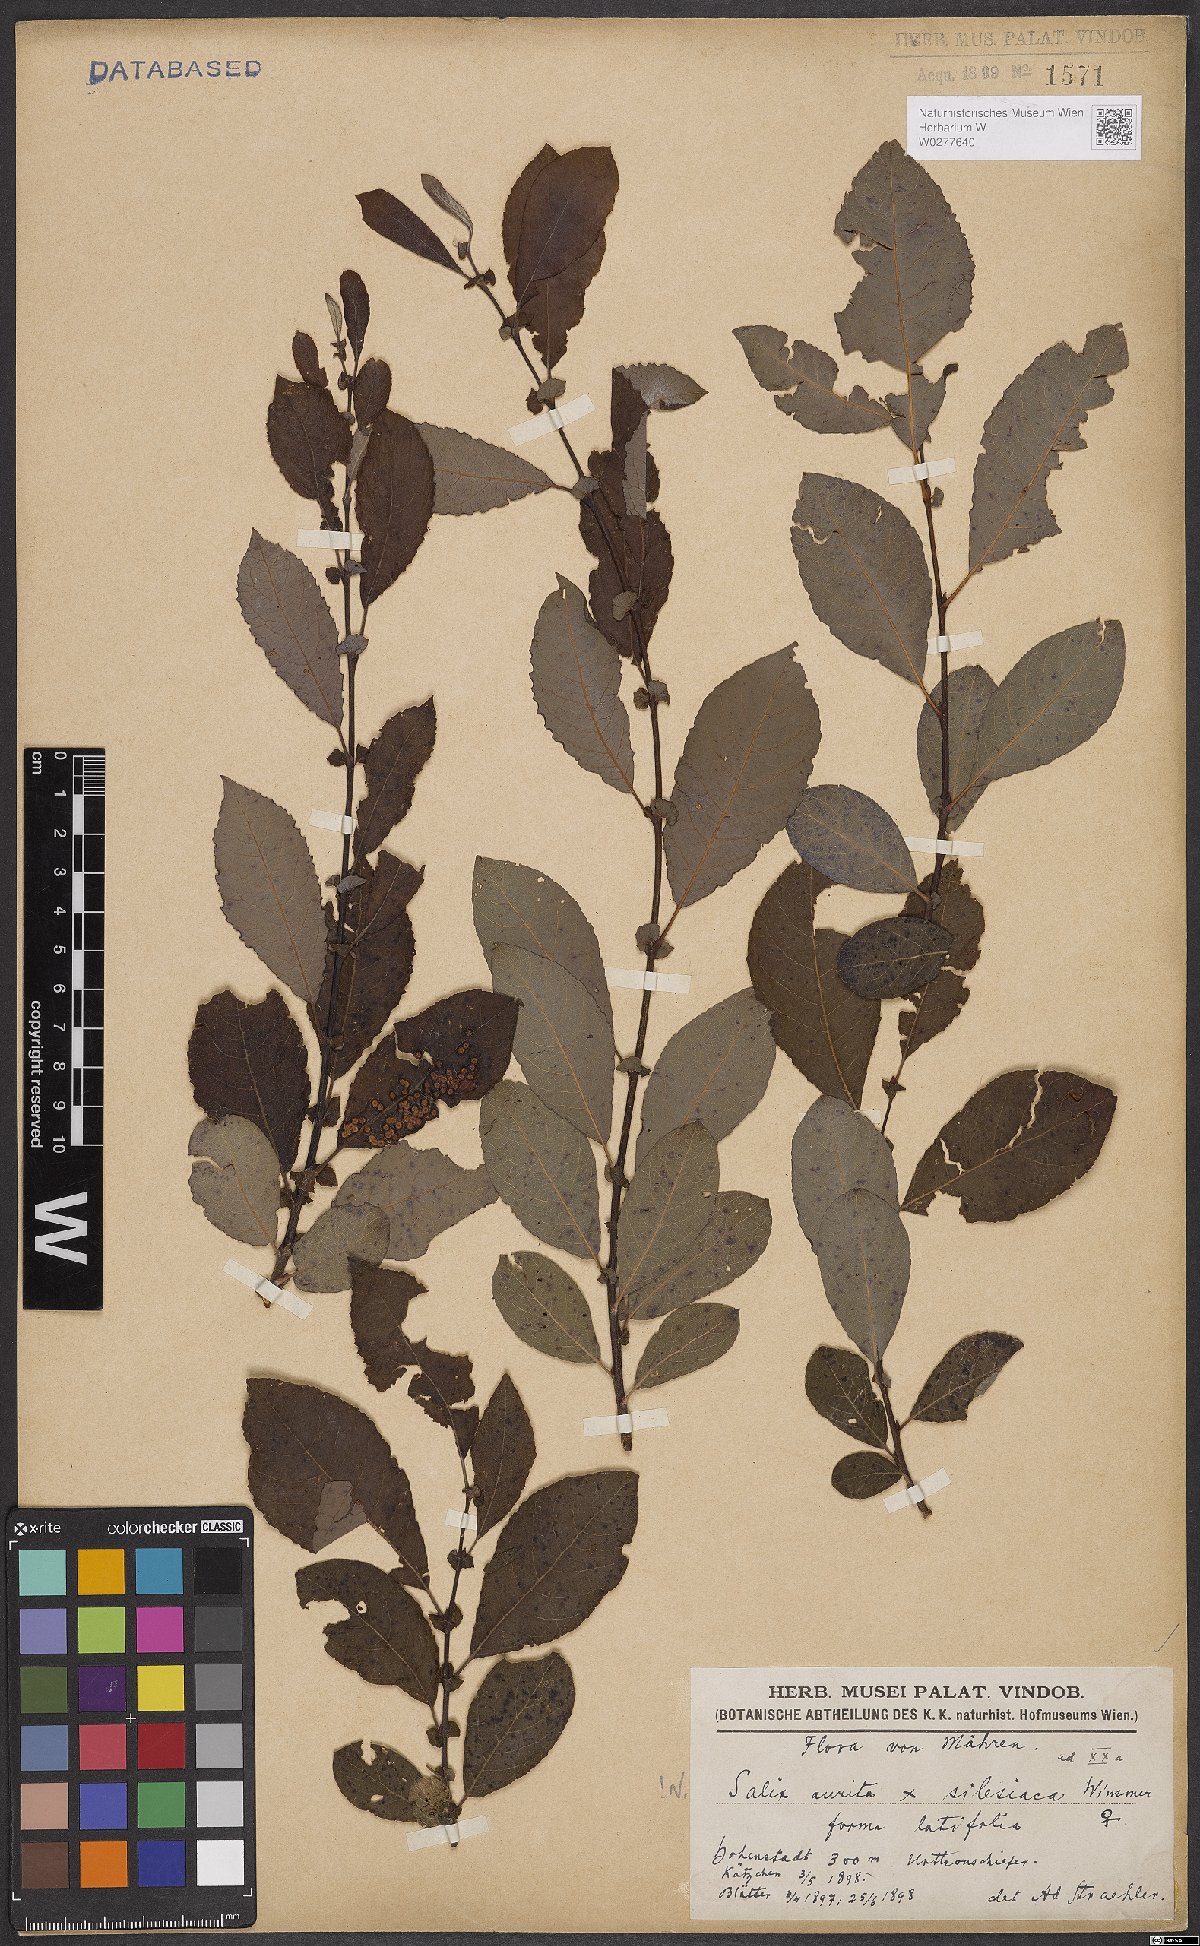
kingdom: Plantae
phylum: Tracheophyta
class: Magnoliopsida
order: Malpighiales
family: Salicaceae
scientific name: Salicaceae
